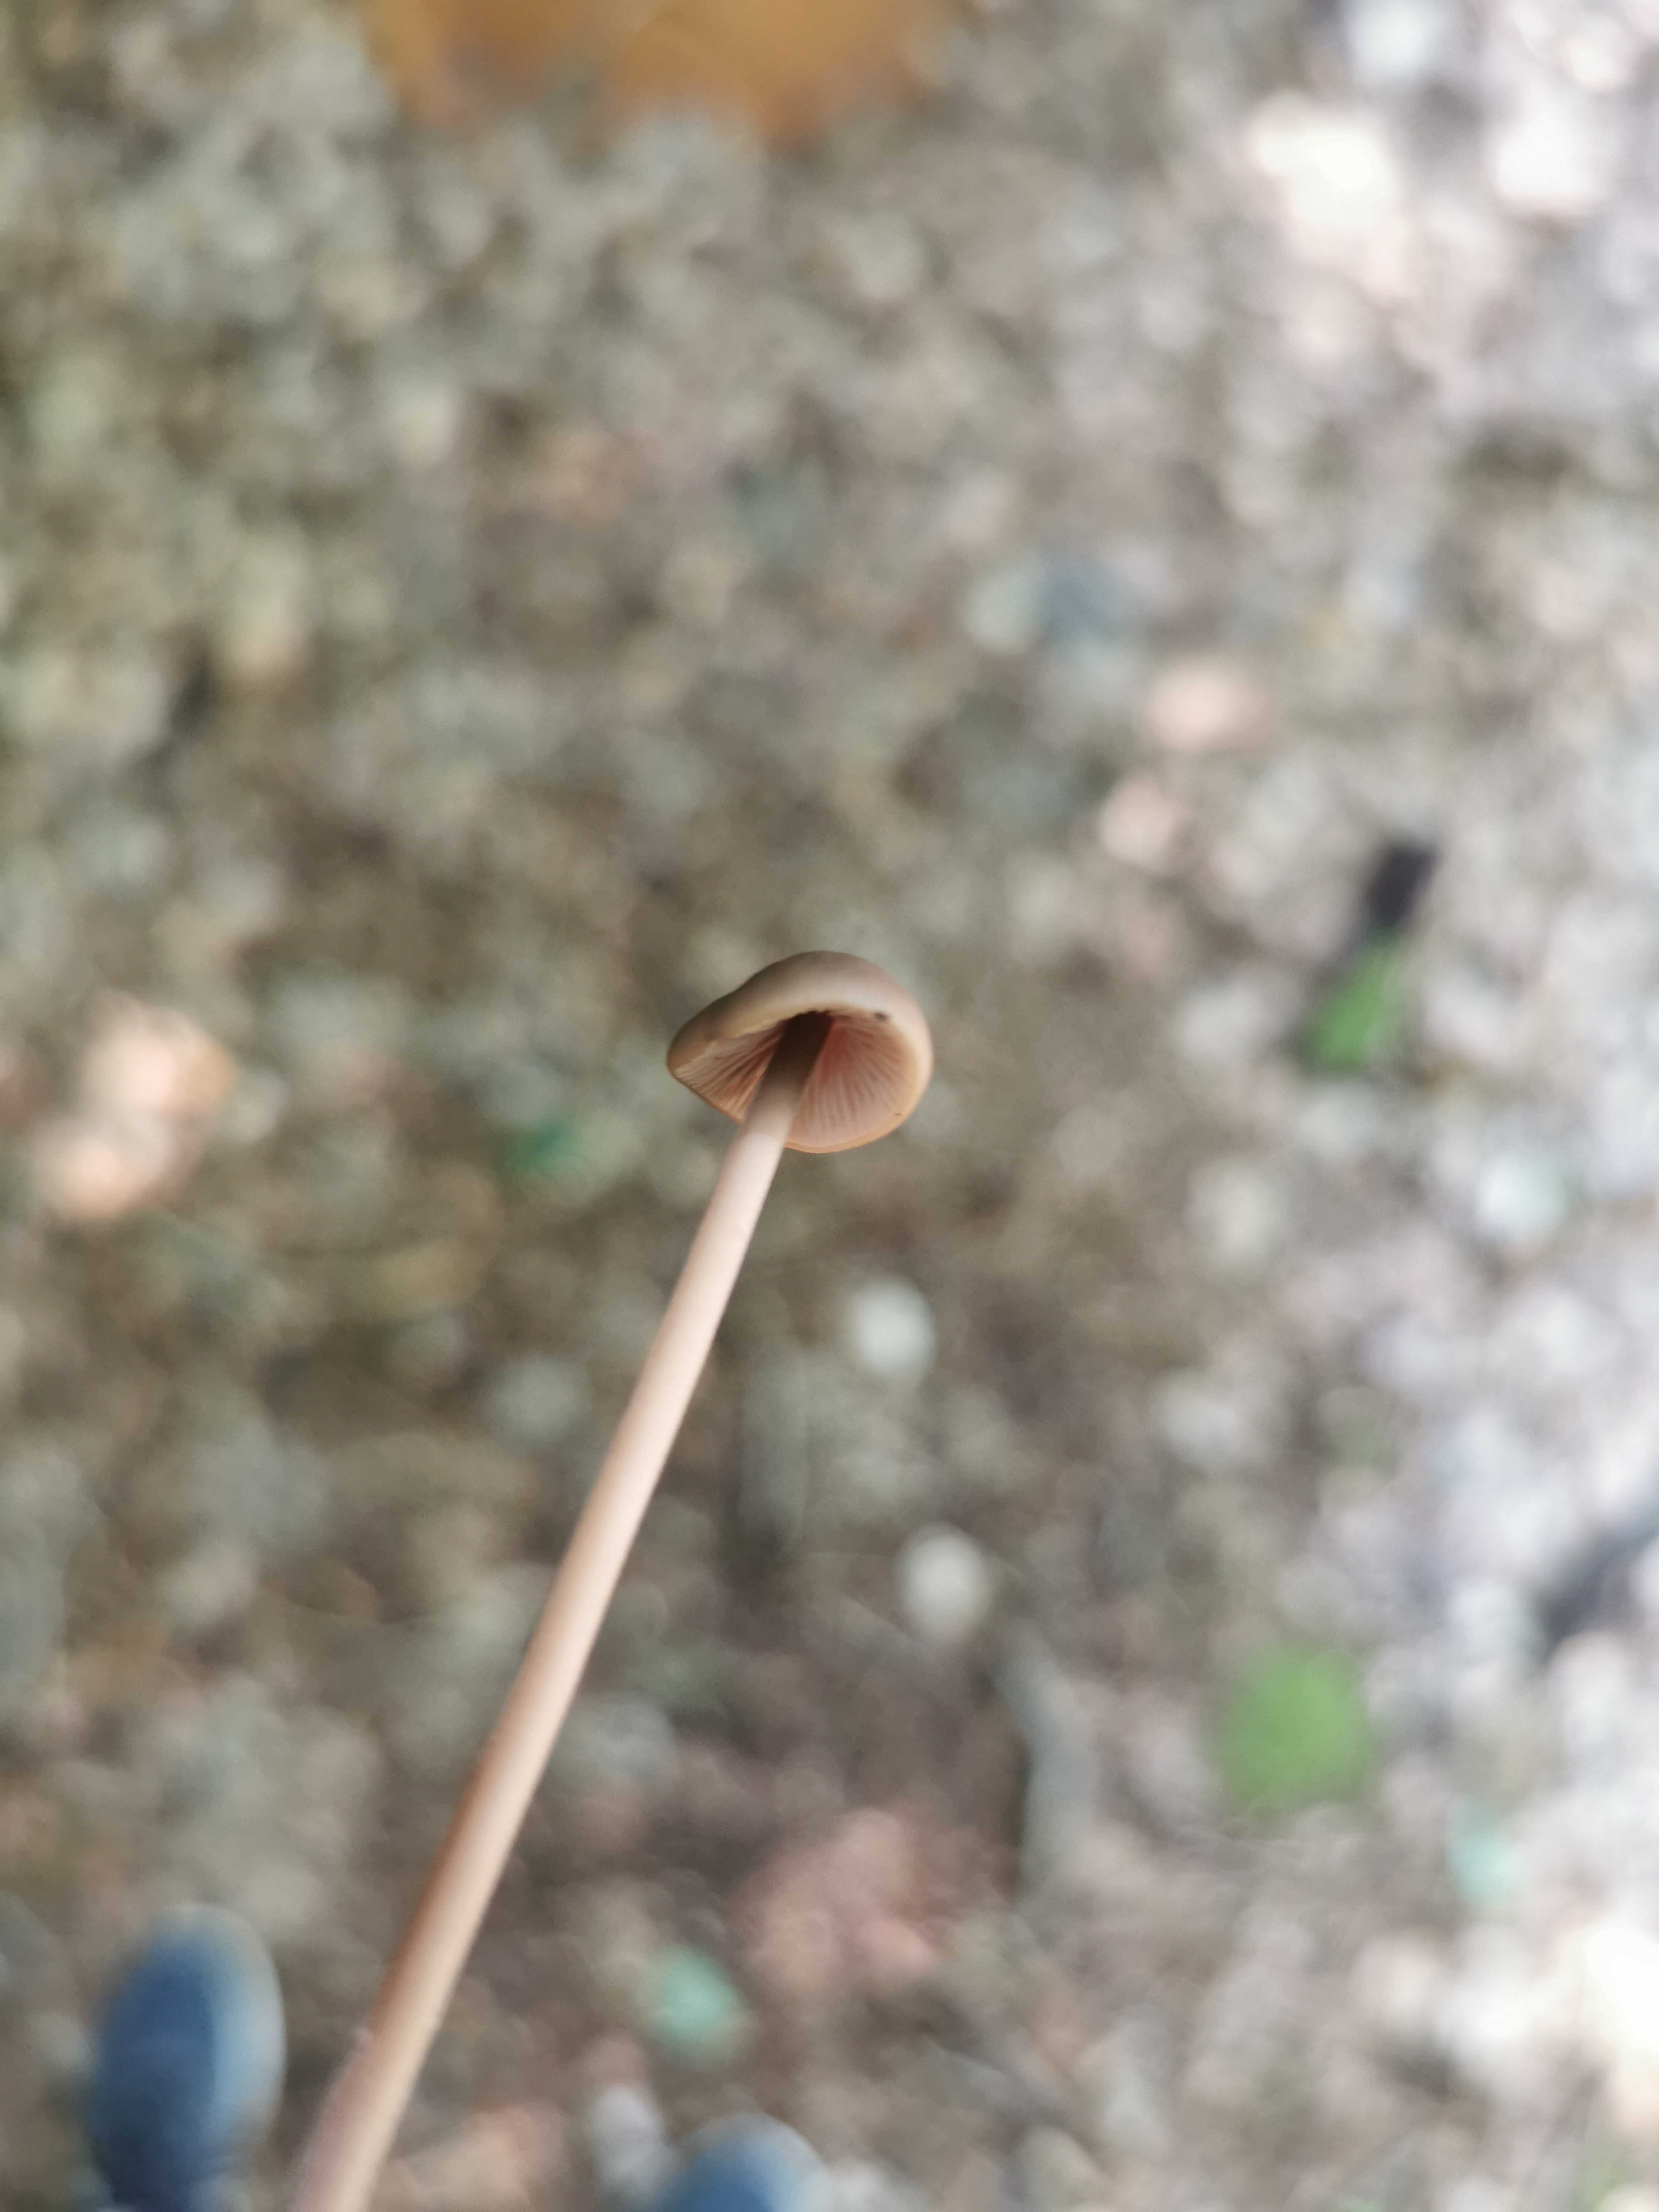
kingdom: Fungi
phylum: Basidiomycota
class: Agaricomycetes
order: Agaricales
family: Omphalotaceae
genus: Mycetinis
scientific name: Mycetinis alliaceus
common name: stor løghat
